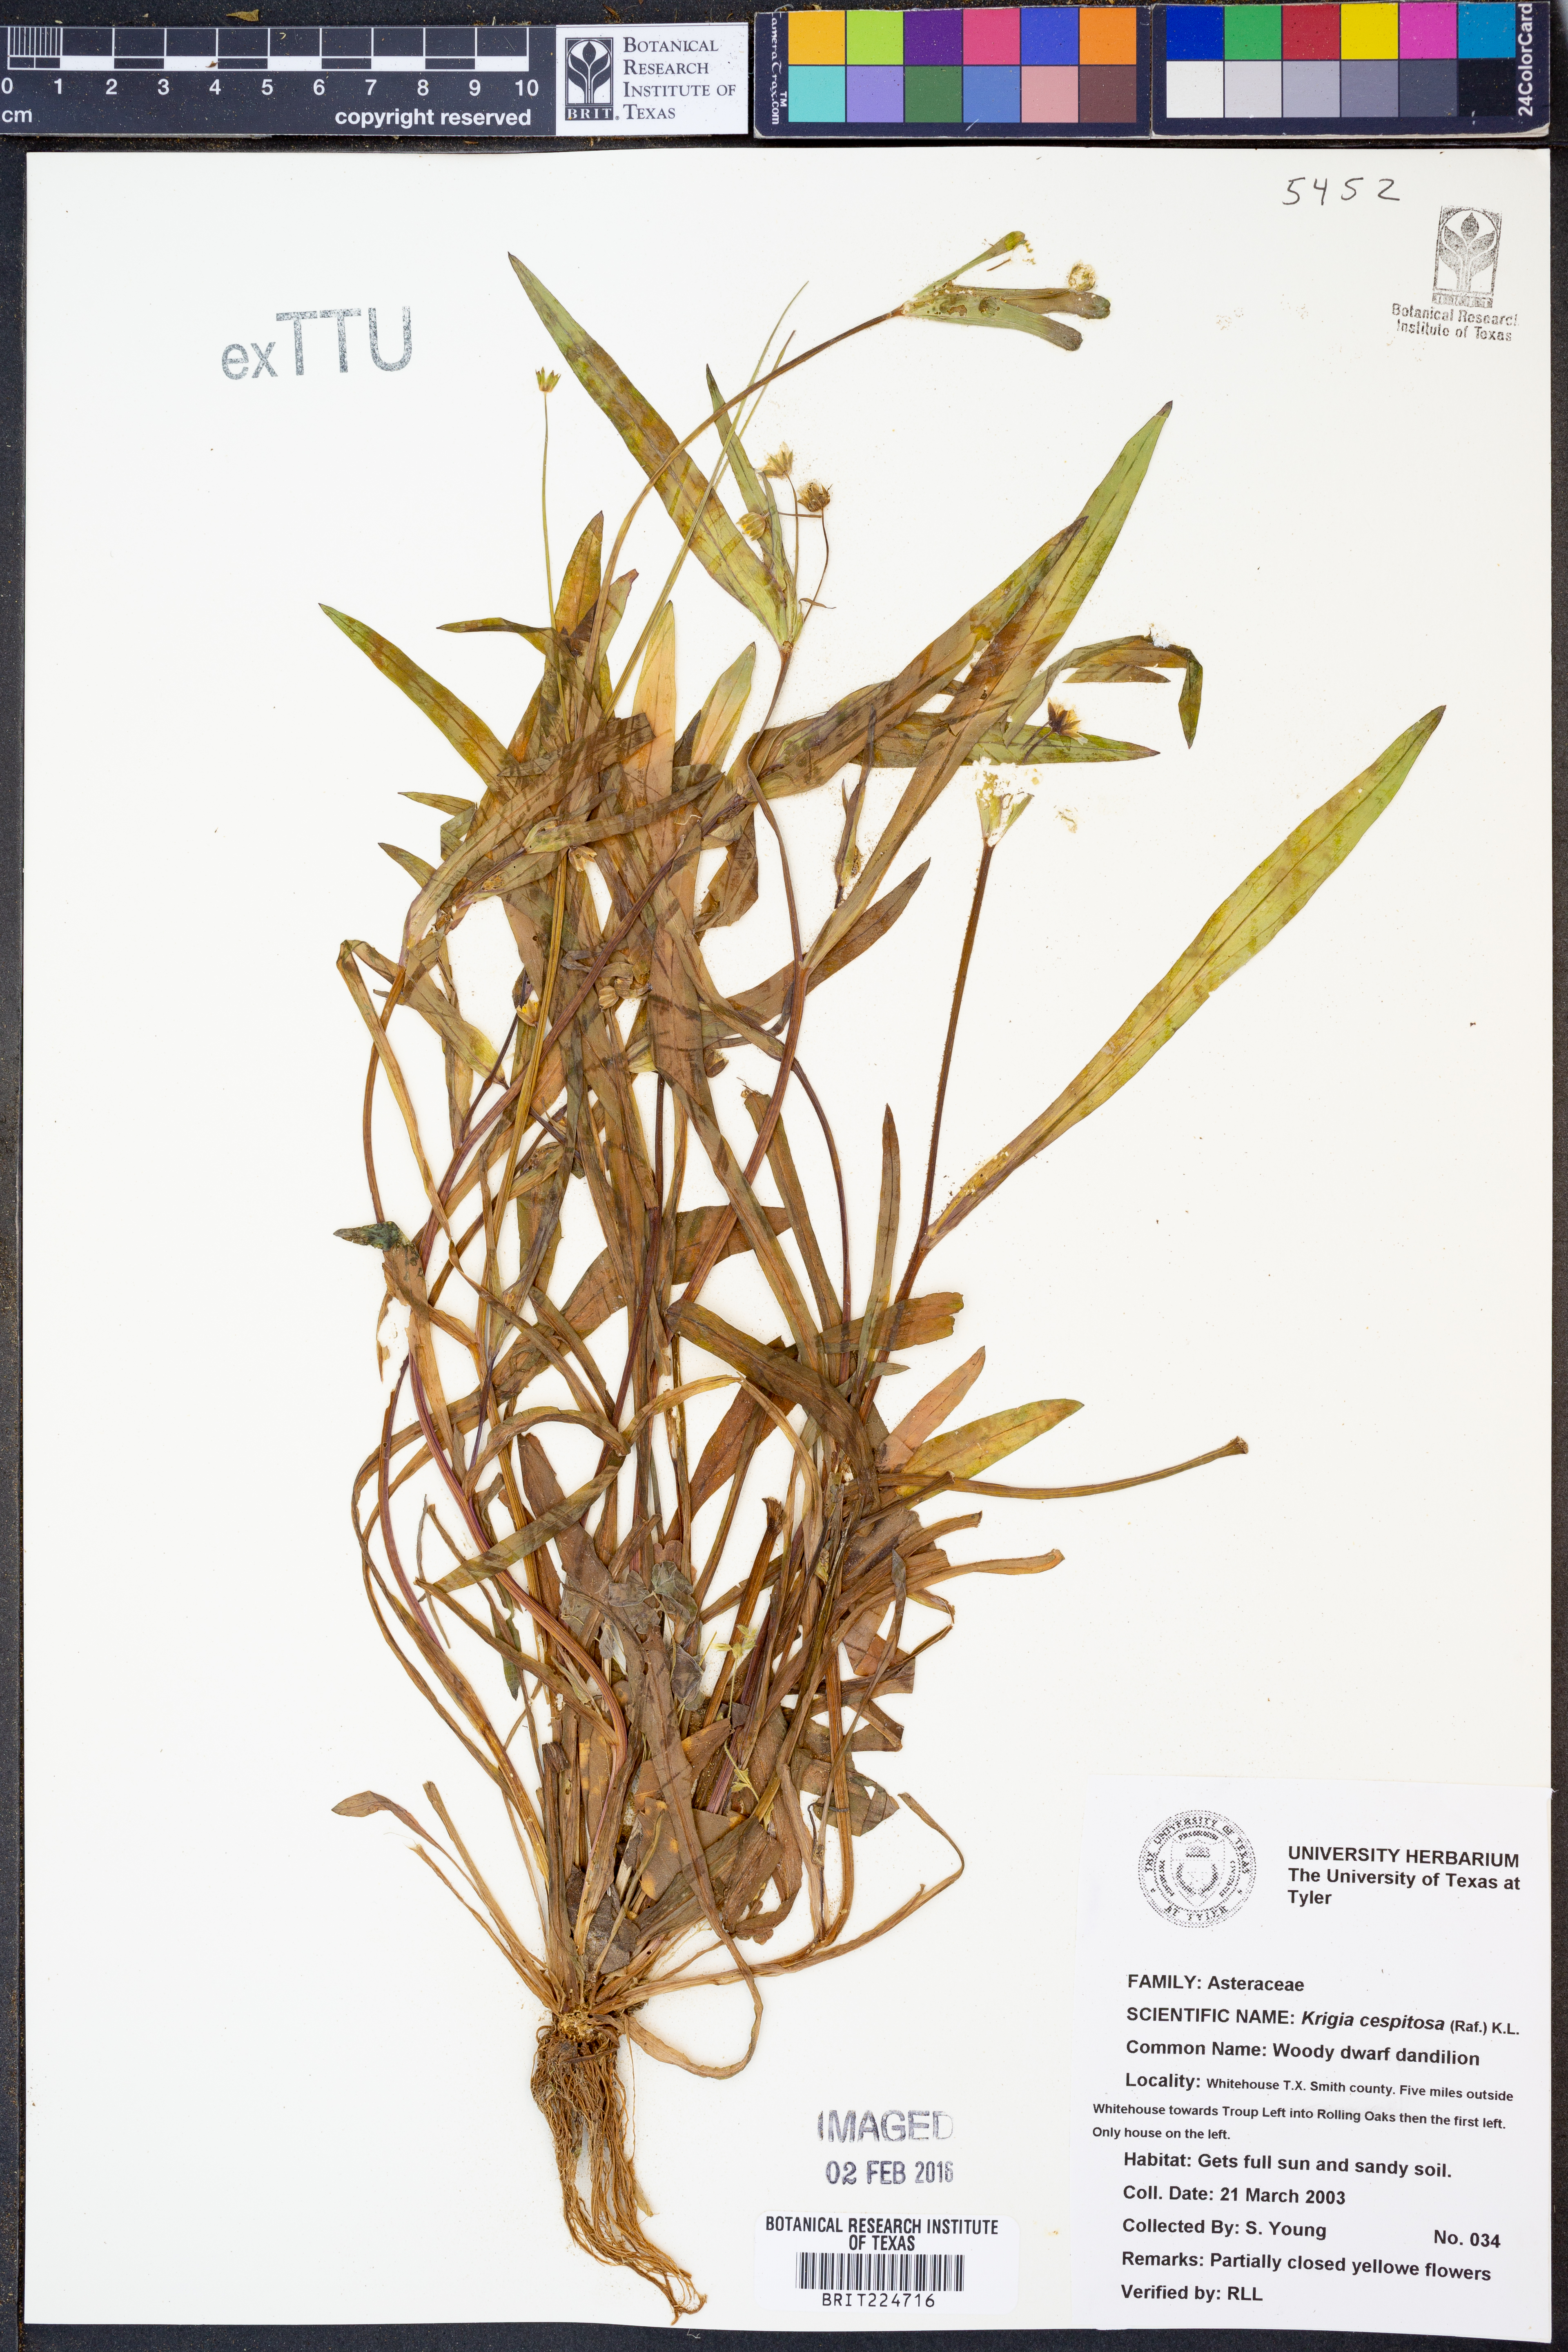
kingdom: Plantae
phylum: Tracheophyta
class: Magnoliopsida
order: Asterales
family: Asteraceae
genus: Krigia
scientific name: Krigia cespitosa
